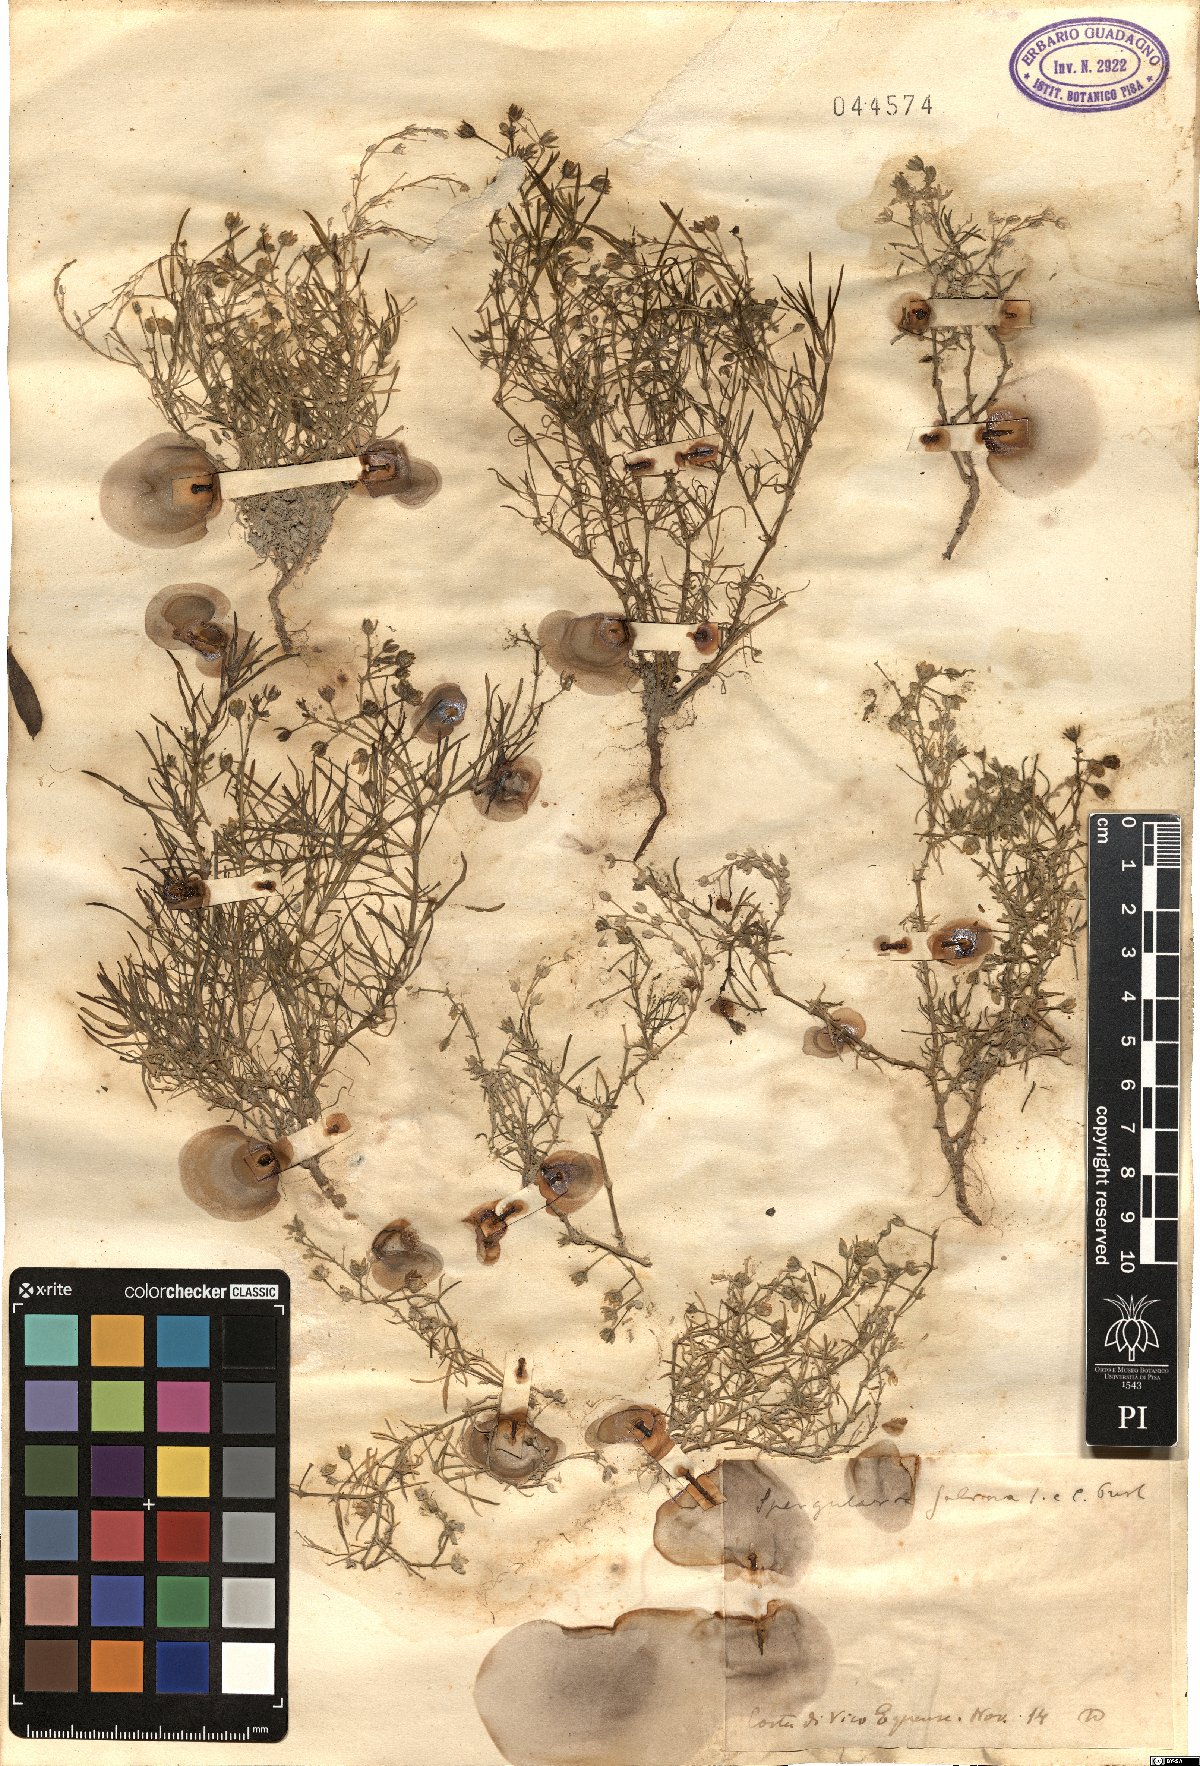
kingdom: Plantae
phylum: Tracheophyta
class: Magnoliopsida
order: Caryophyllales
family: Caryophyllaceae
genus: Spergularia
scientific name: Spergularia marina
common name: Lesser sea-spurrey
